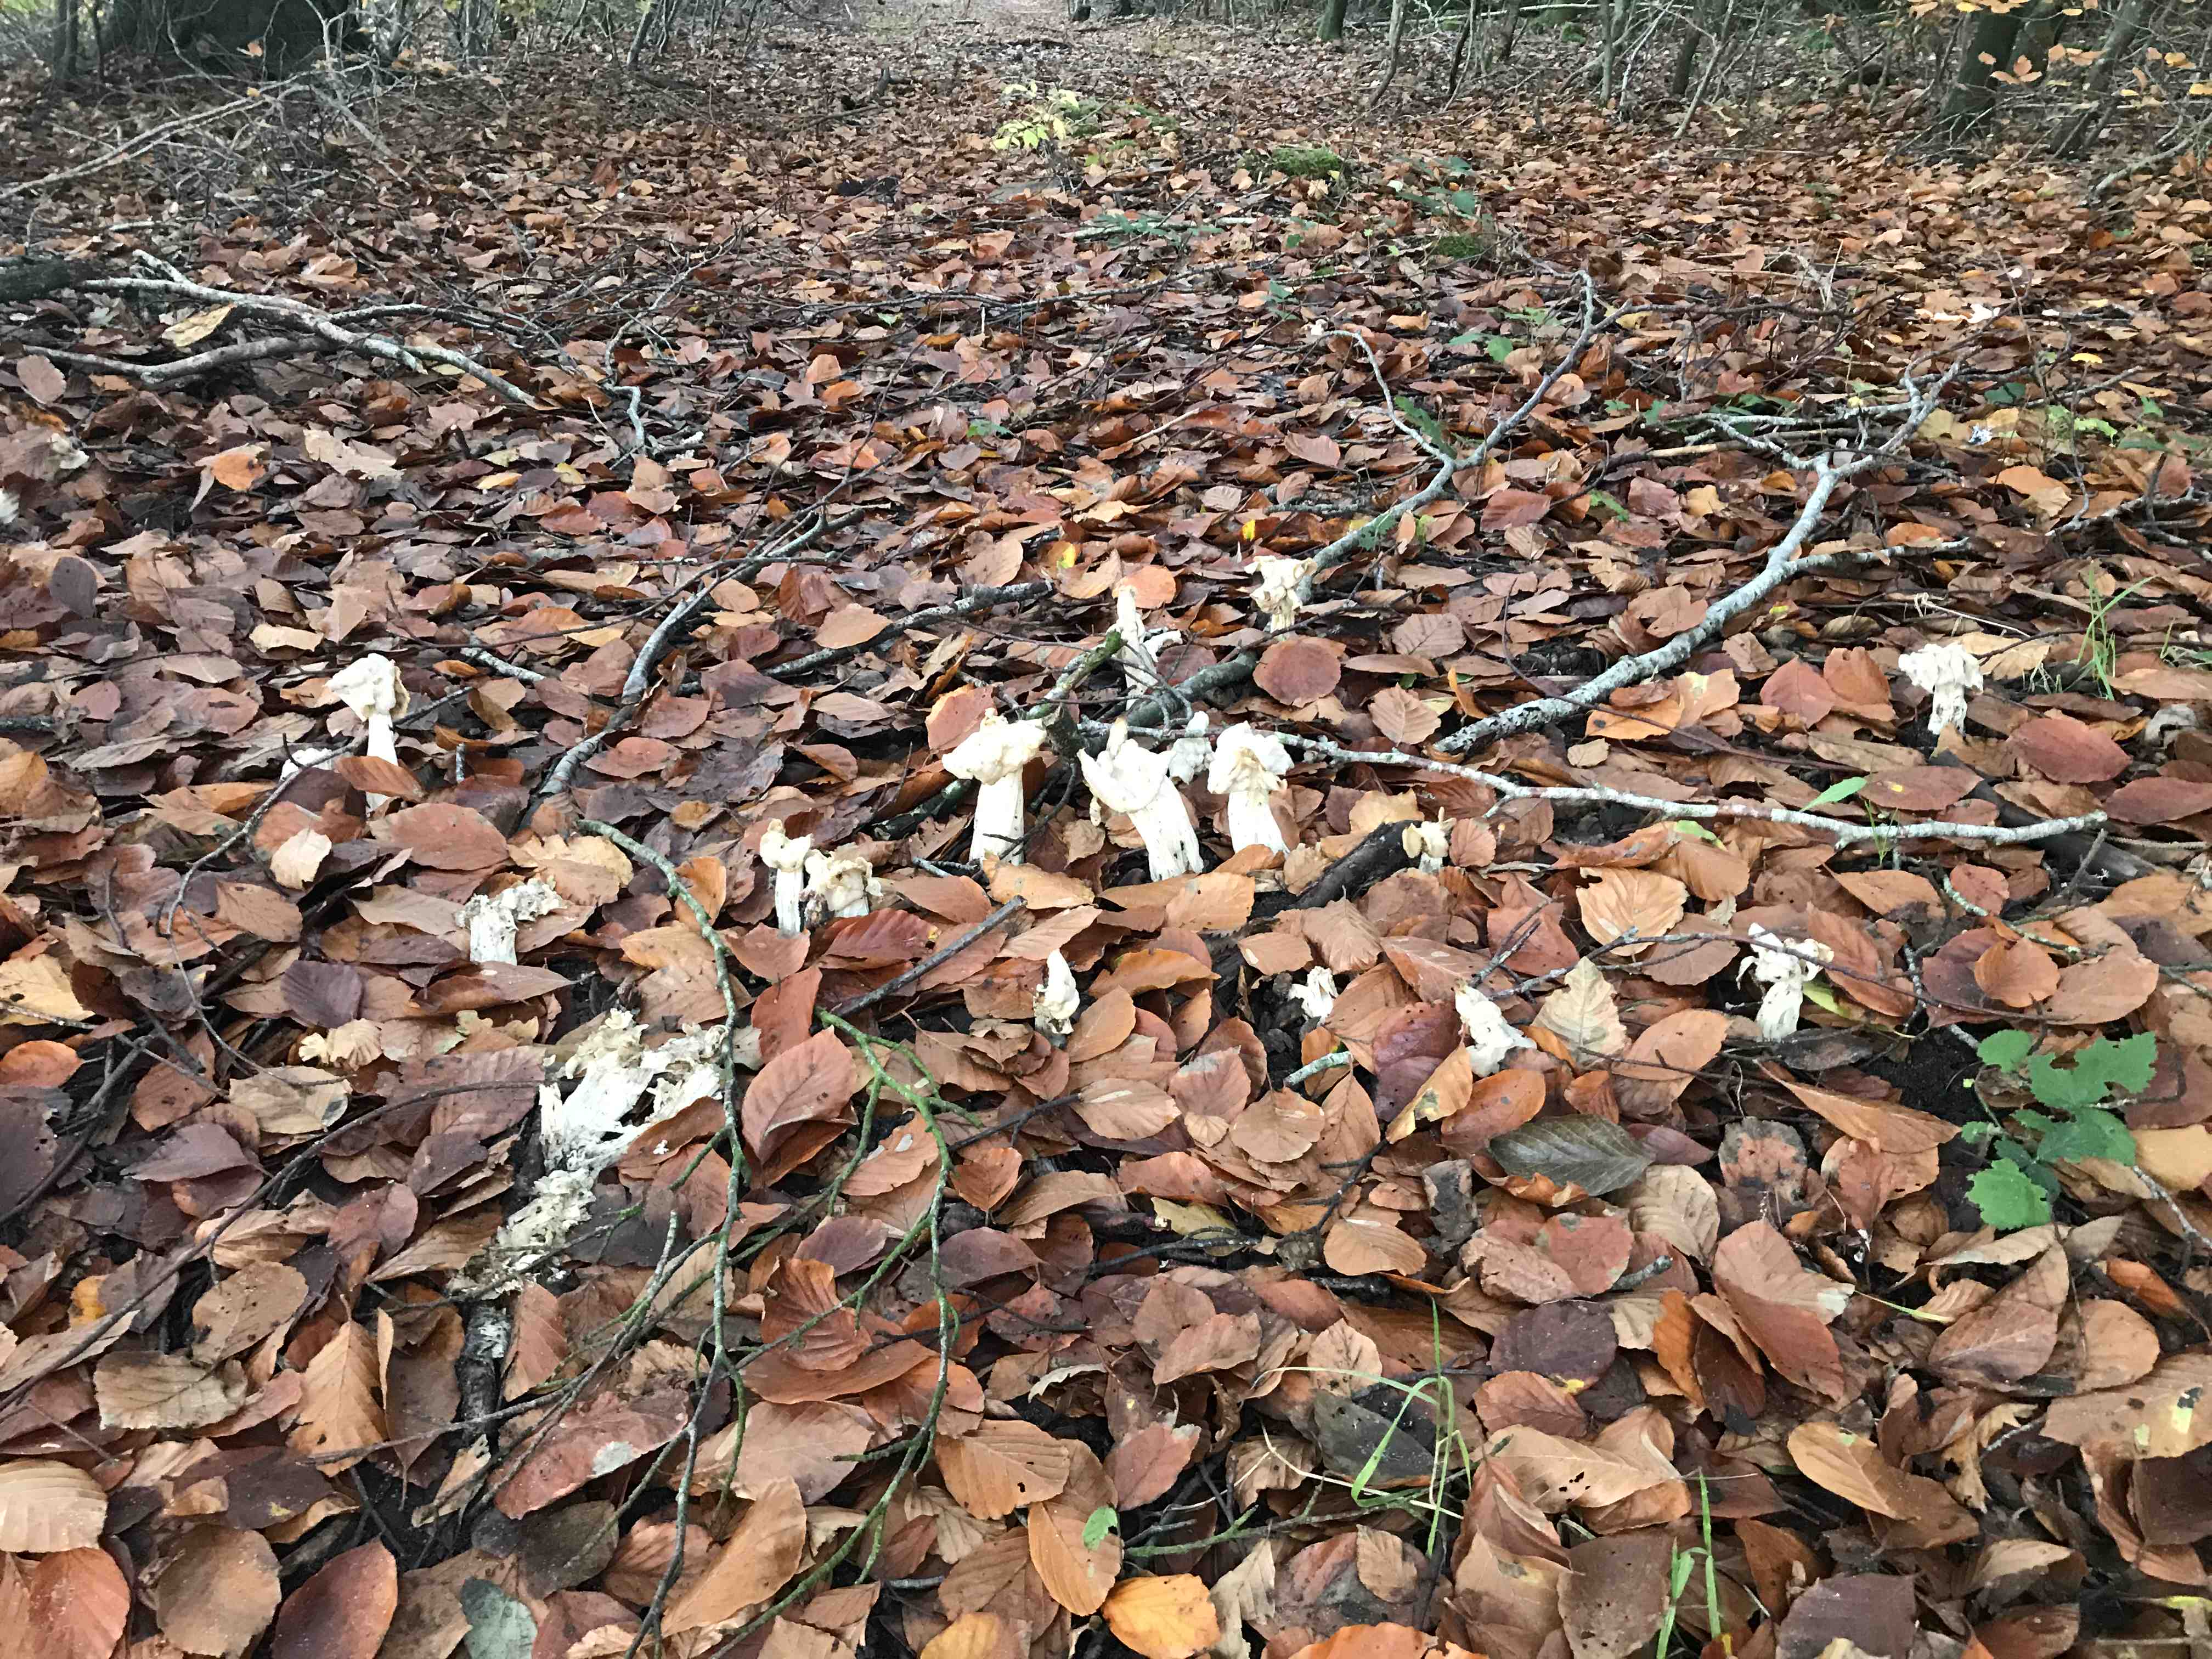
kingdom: Fungi
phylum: Ascomycota
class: Pezizomycetes
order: Pezizales
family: Helvellaceae
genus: Helvella
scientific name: Helvella crispa
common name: kruset foldhat
